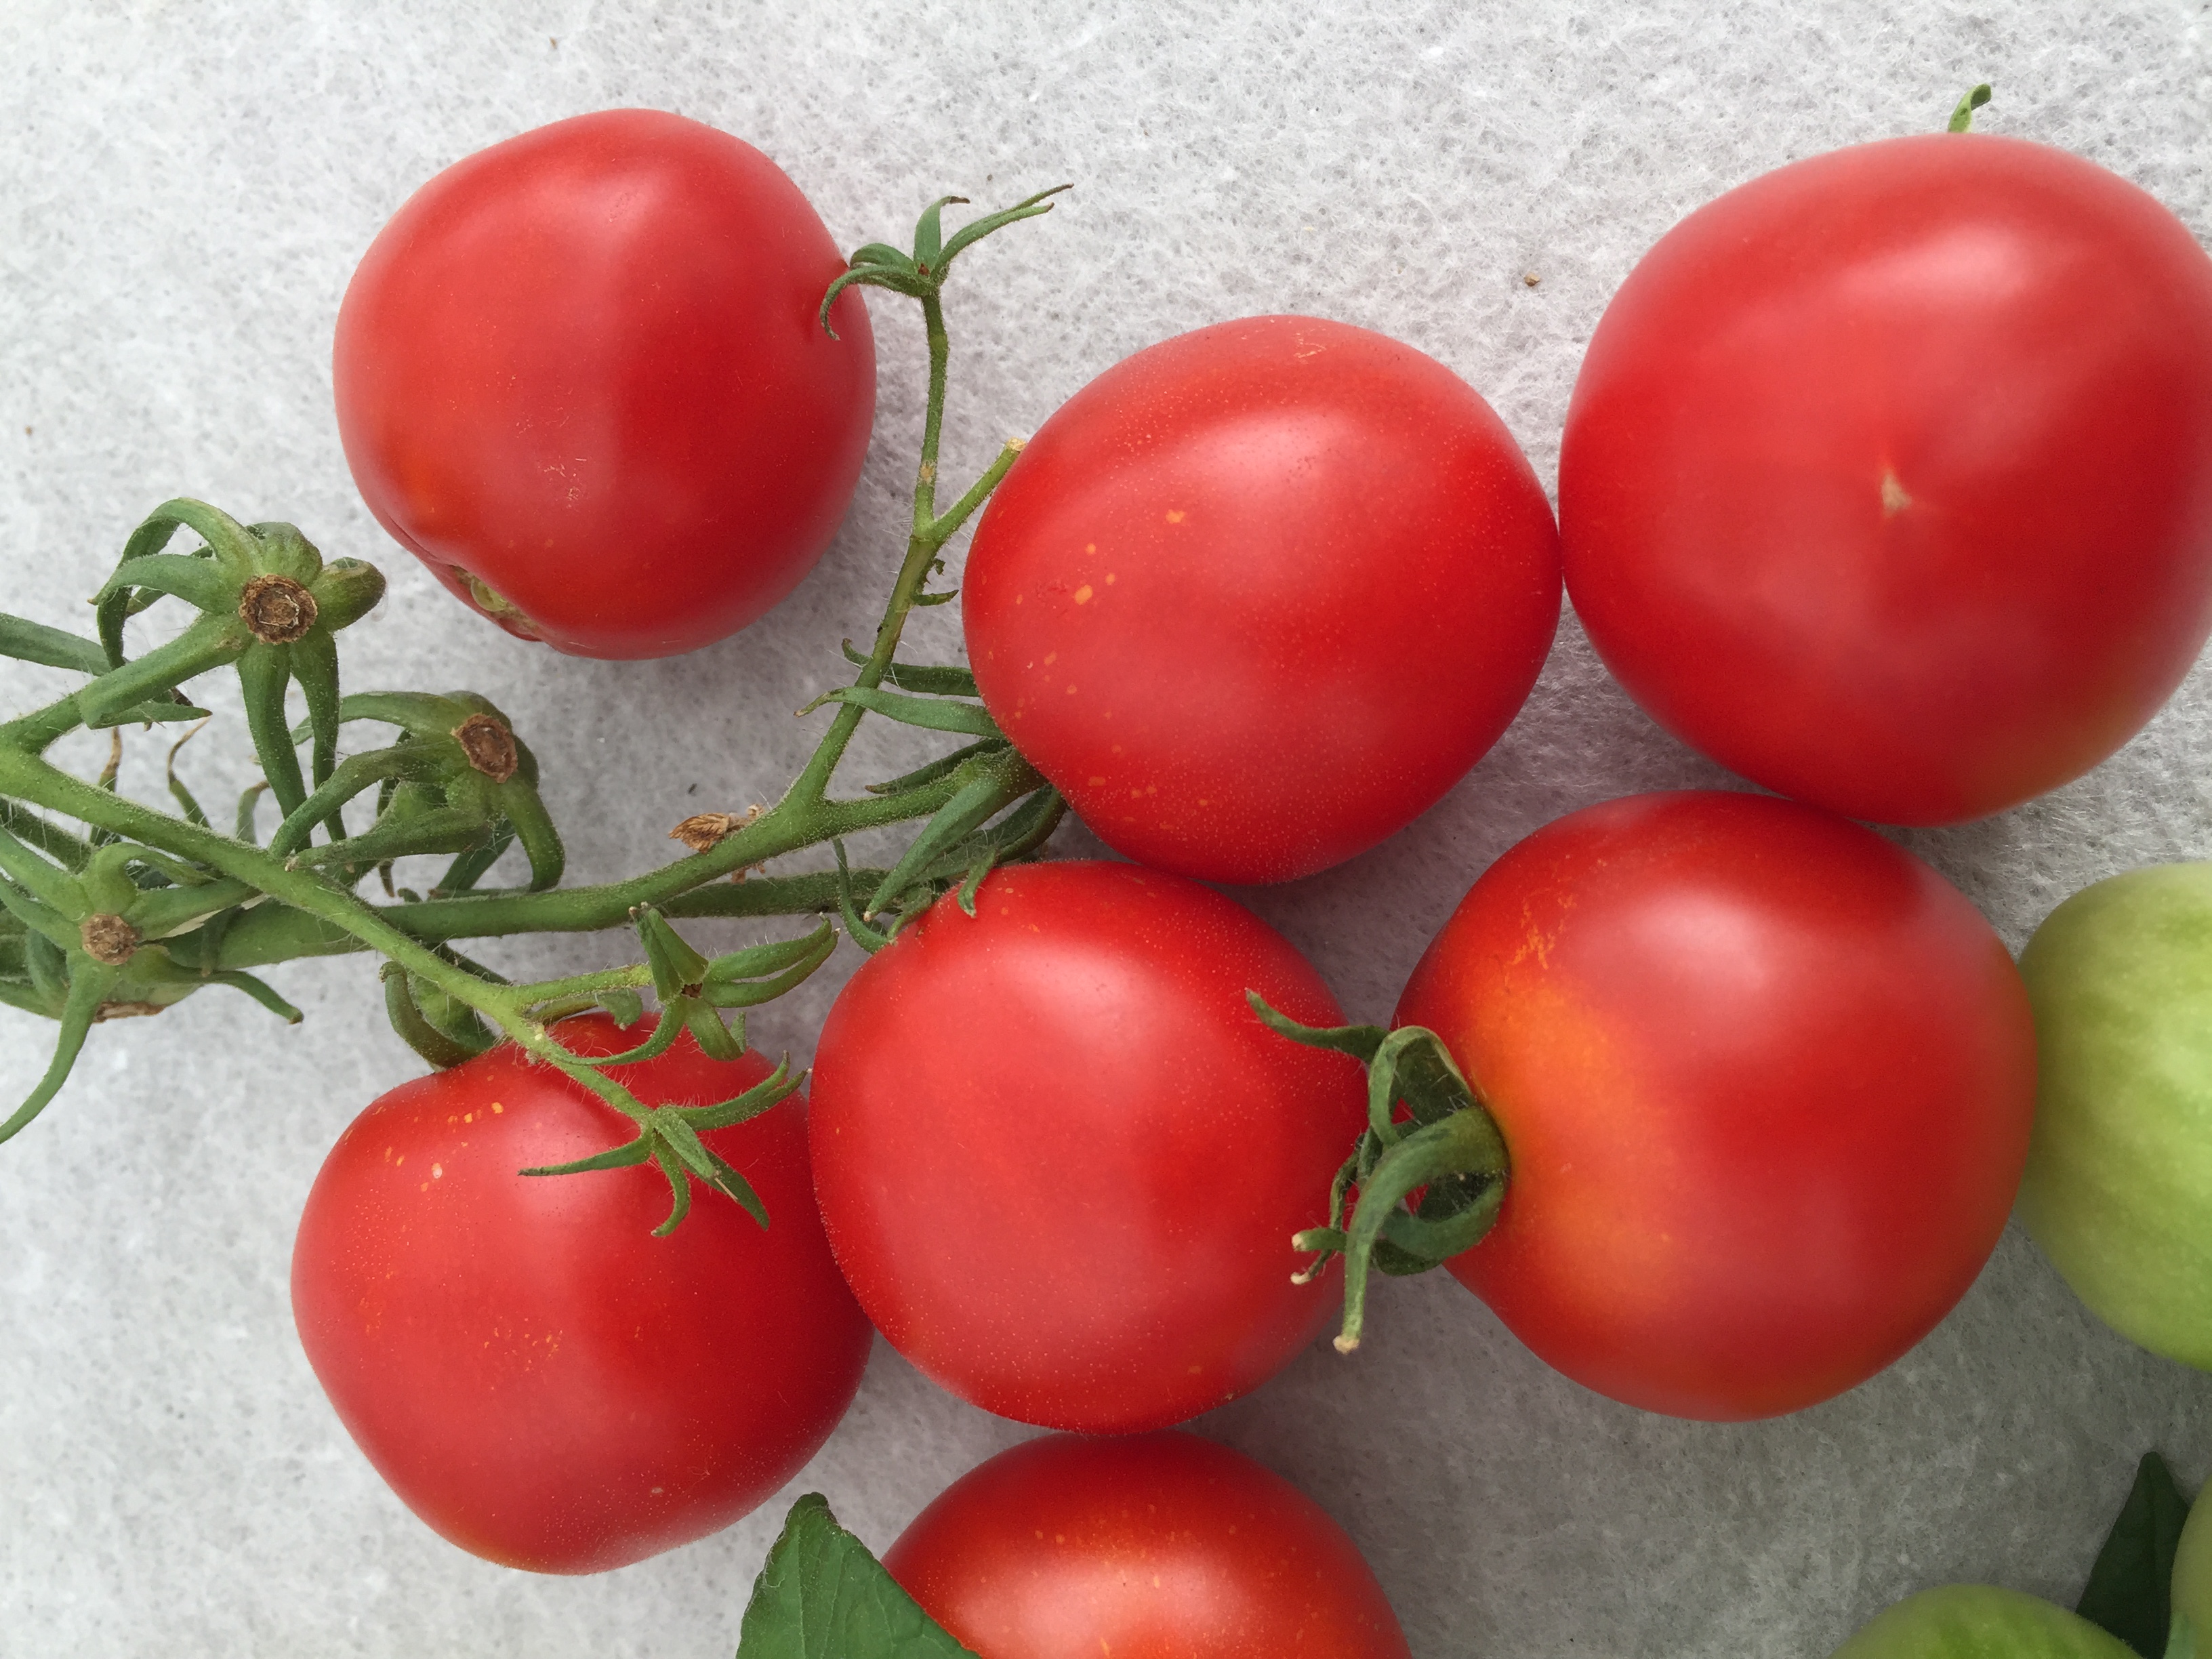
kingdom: Plantae
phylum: Tracheophyta
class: Magnoliopsida
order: Solanales
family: Solanaceae
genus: Solanum
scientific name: Solanum lycopersicum
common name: Garden tomato
